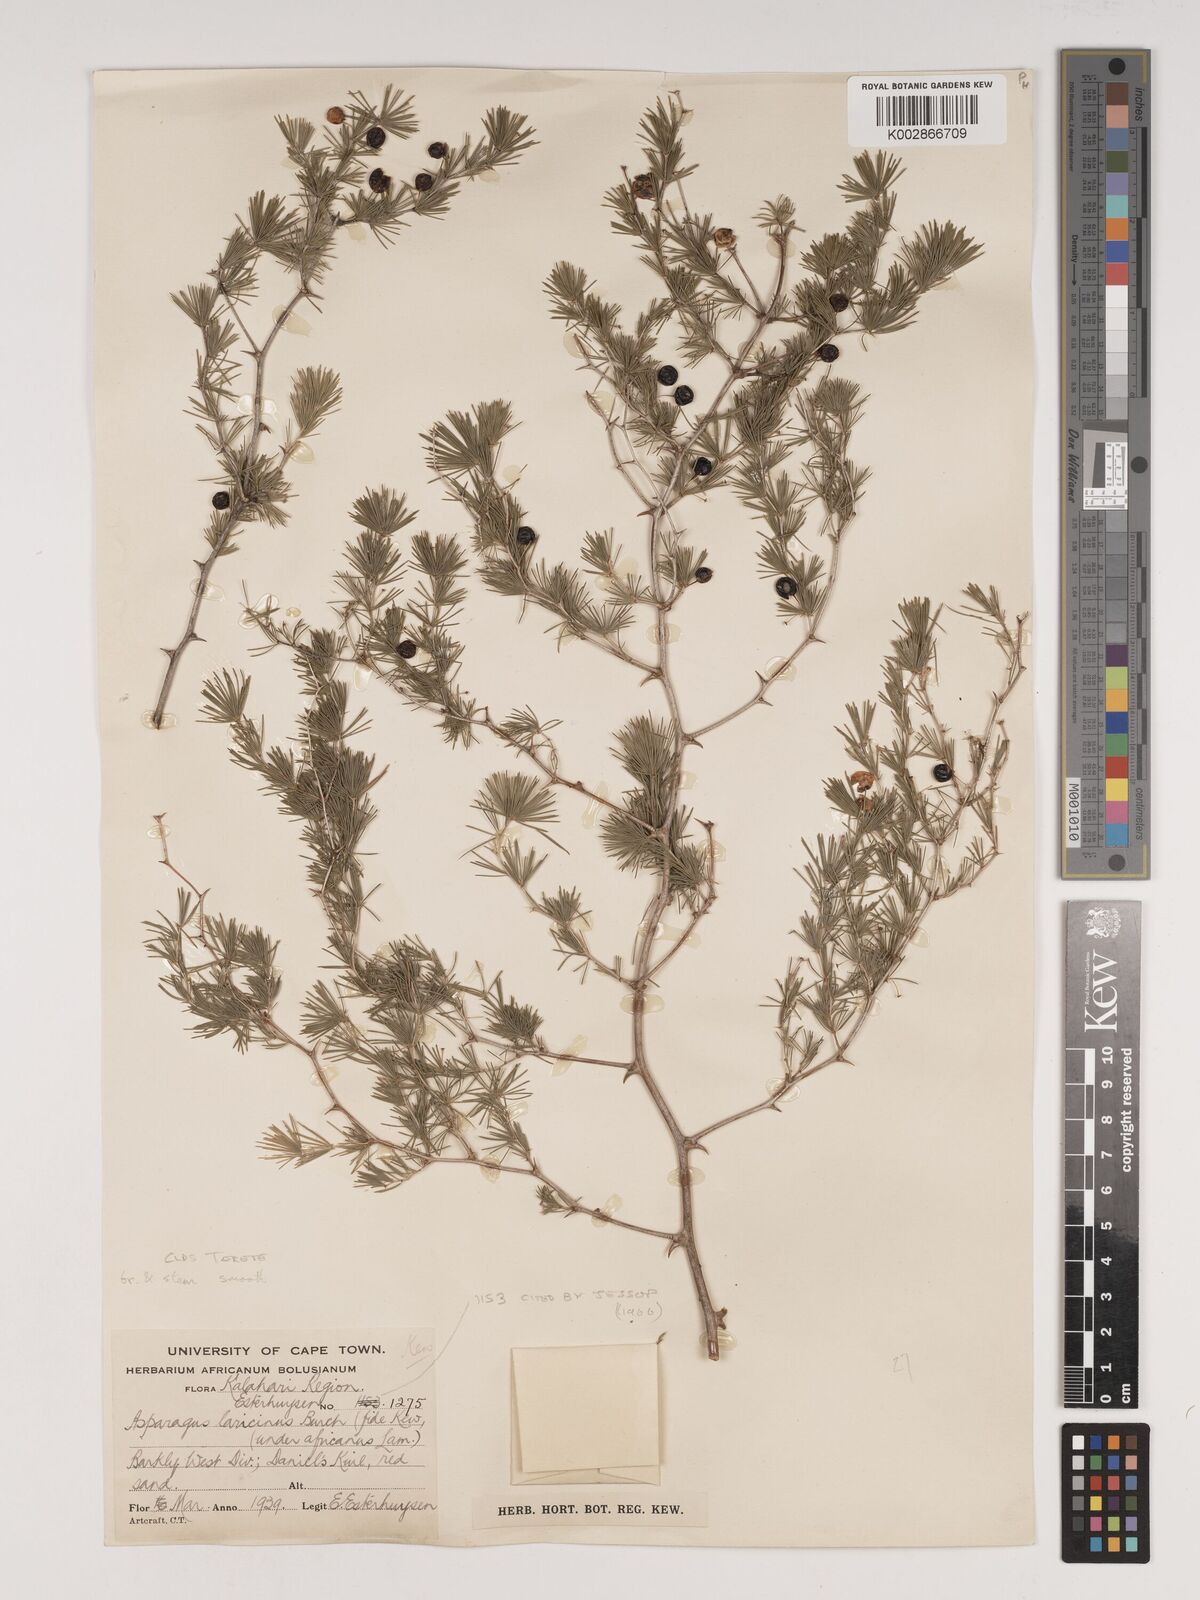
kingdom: Plantae
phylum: Tracheophyta
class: Liliopsida
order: Asparagales
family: Asparagaceae
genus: Asparagus
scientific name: Asparagus laricinus
